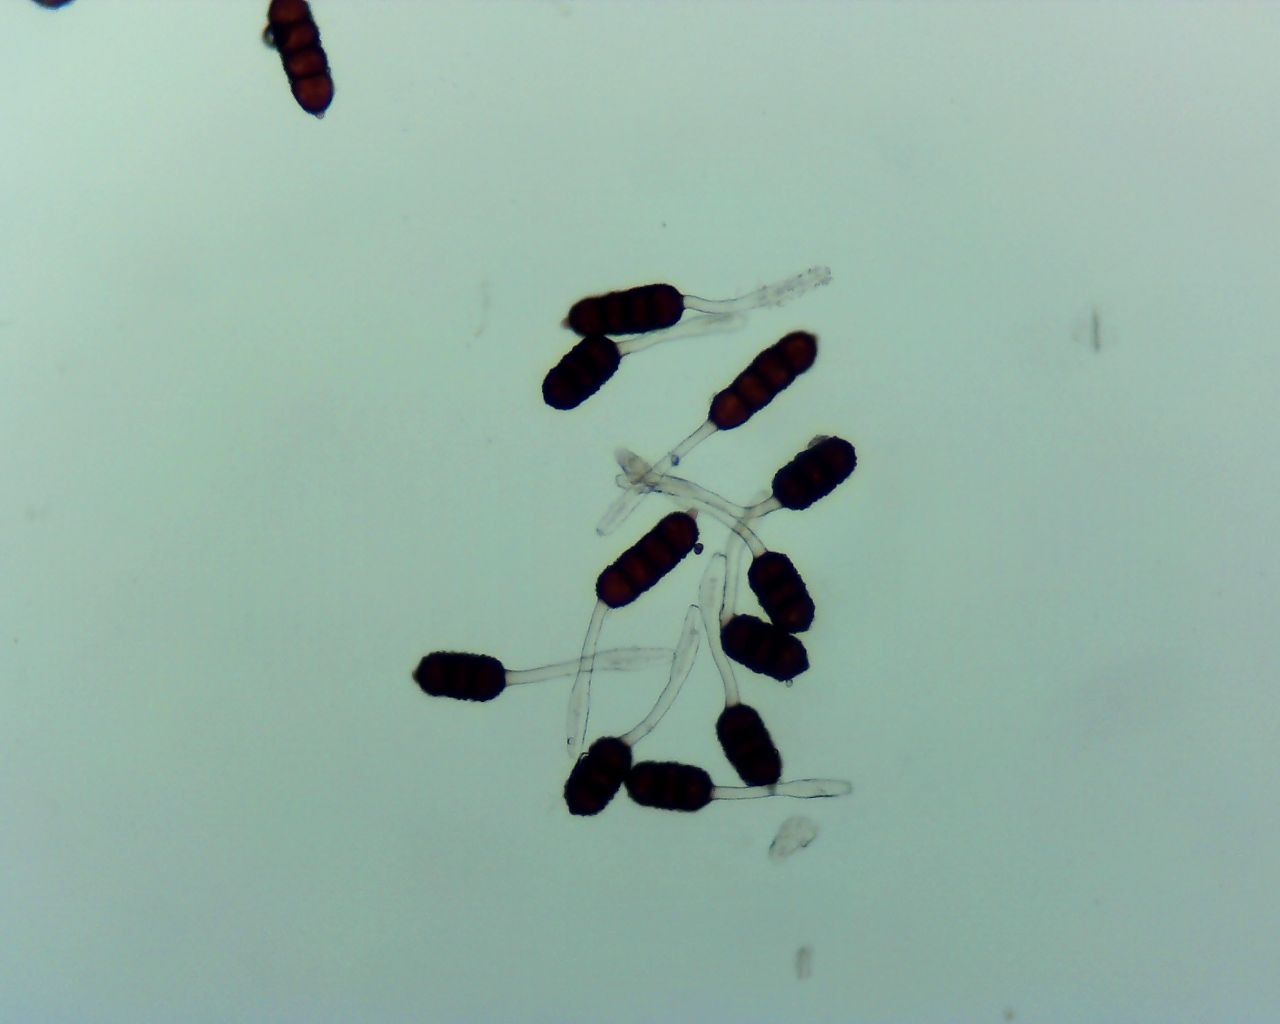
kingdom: Fungi
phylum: Basidiomycota
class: Pucciniomycetes
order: Pucciniales
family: Phragmidiaceae
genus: Phragmidium
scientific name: Phragmidium violaceum
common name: violet flercellerust
